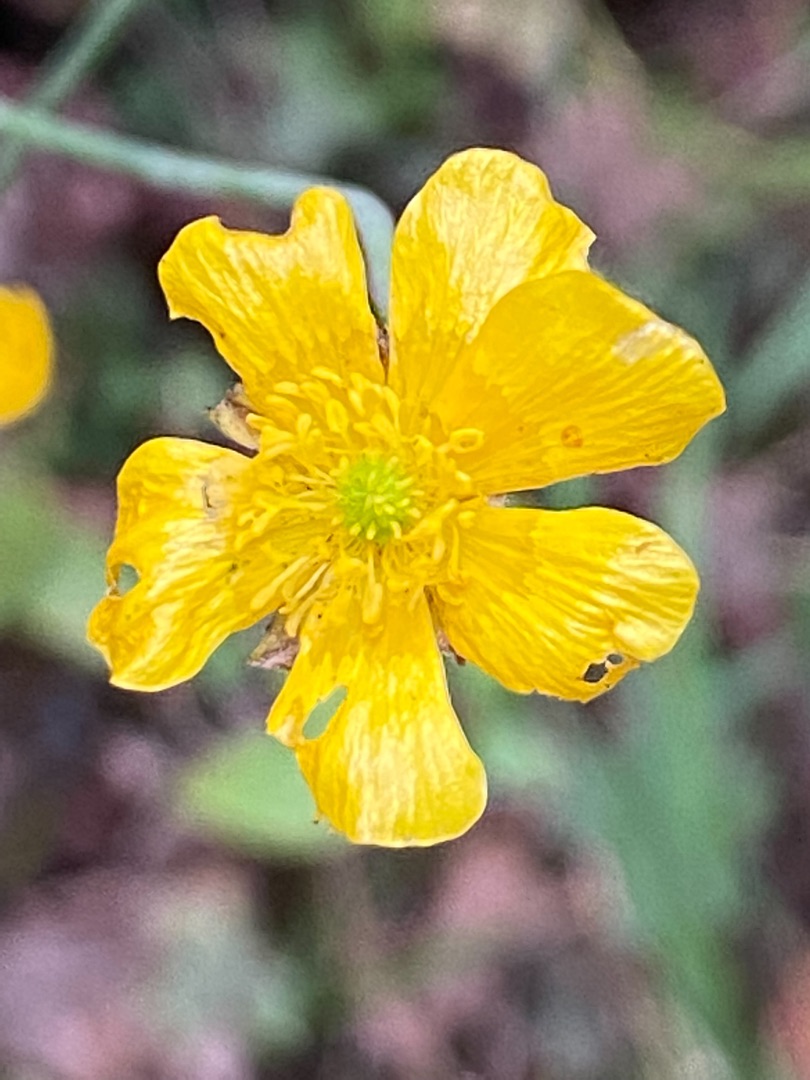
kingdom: Plantae
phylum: Tracheophyta
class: Magnoliopsida
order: Ranunculales
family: Ranunculaceae
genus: Ranunculus
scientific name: Ranunculus acris
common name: Bidende ranunkel
